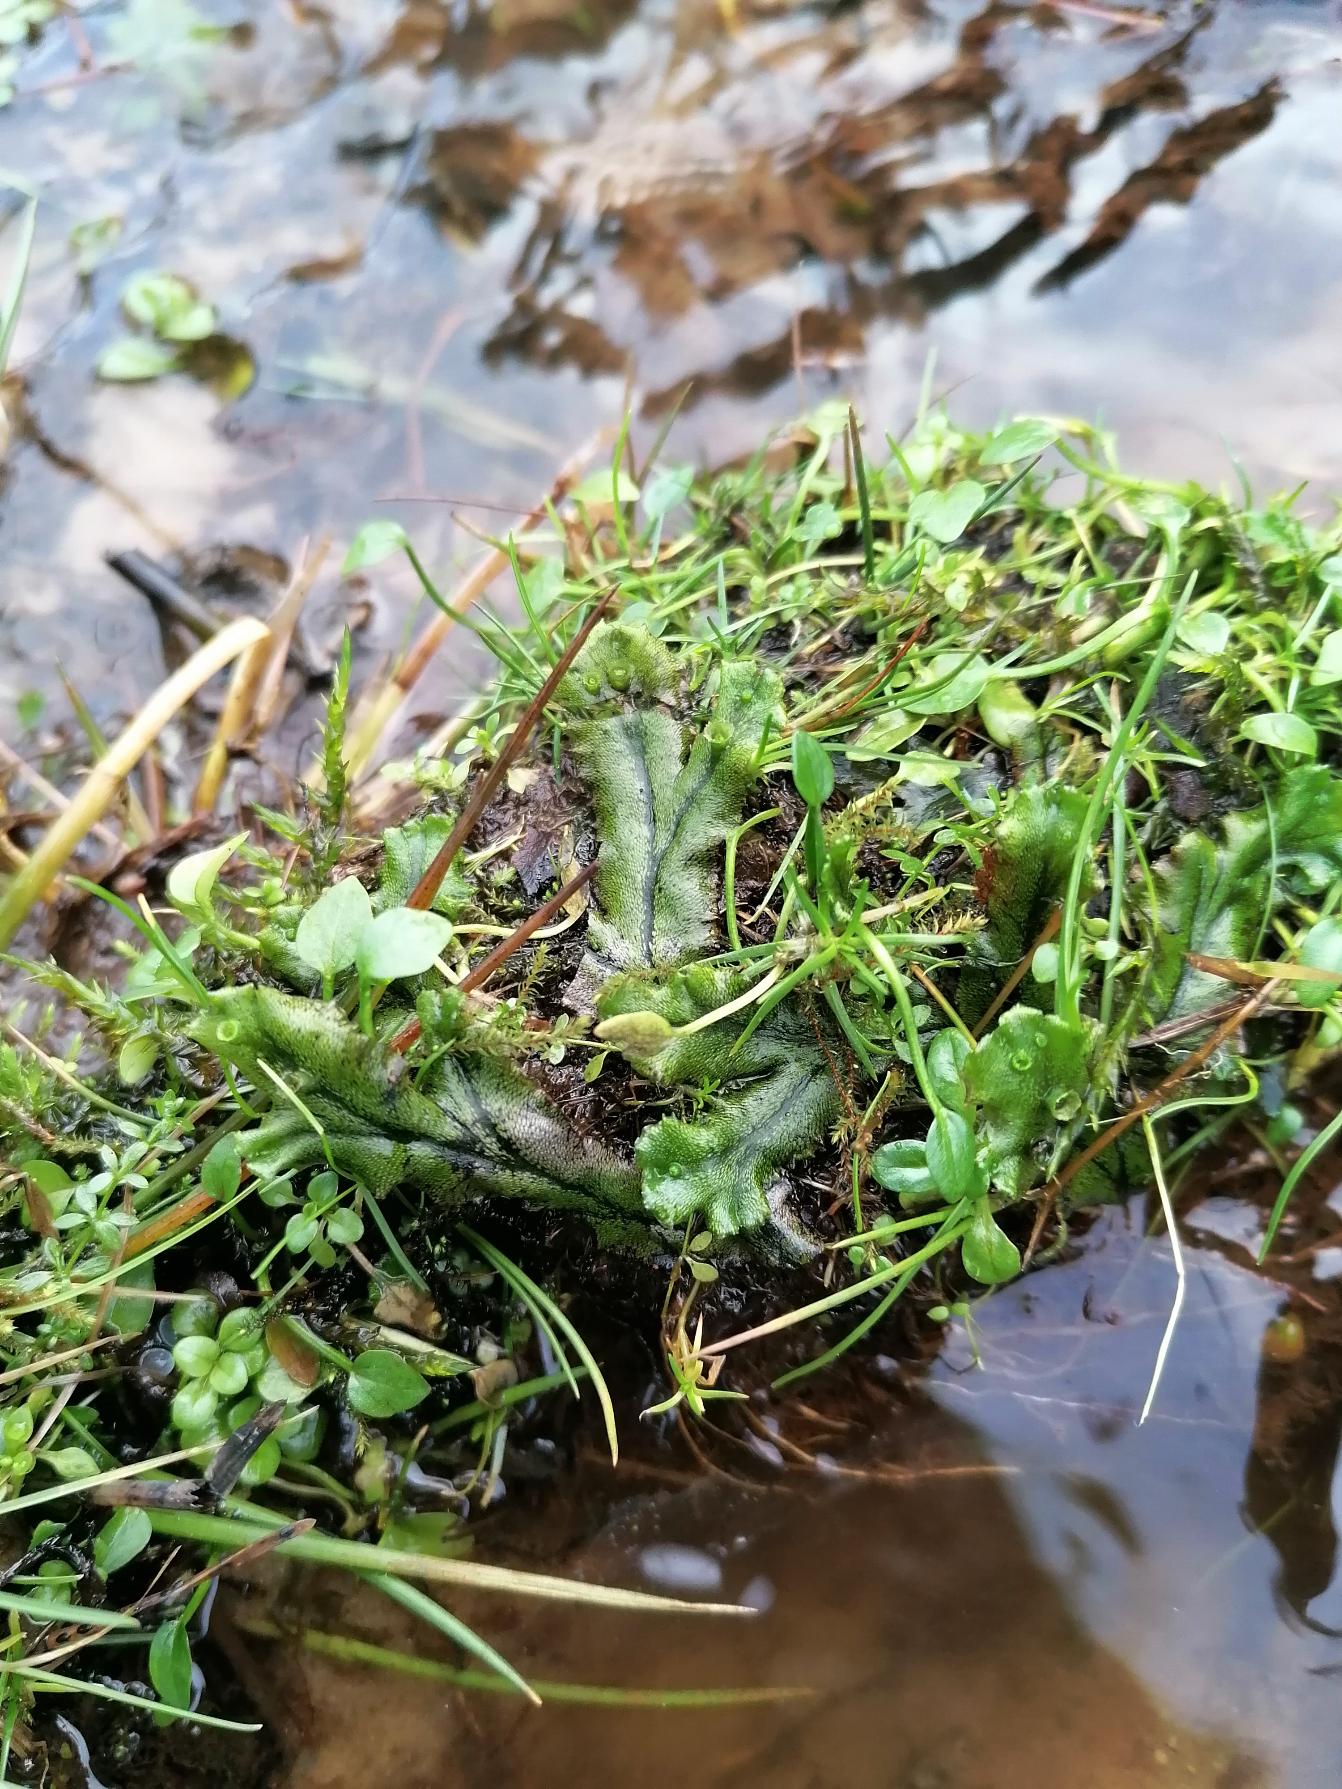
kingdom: Plantae
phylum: Marchantiophyta
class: Marchantiopsida
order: Marchantiales
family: Marchantiaceae
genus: Marchantia
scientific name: Marchantia polymorpha
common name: Mose-lungemos
